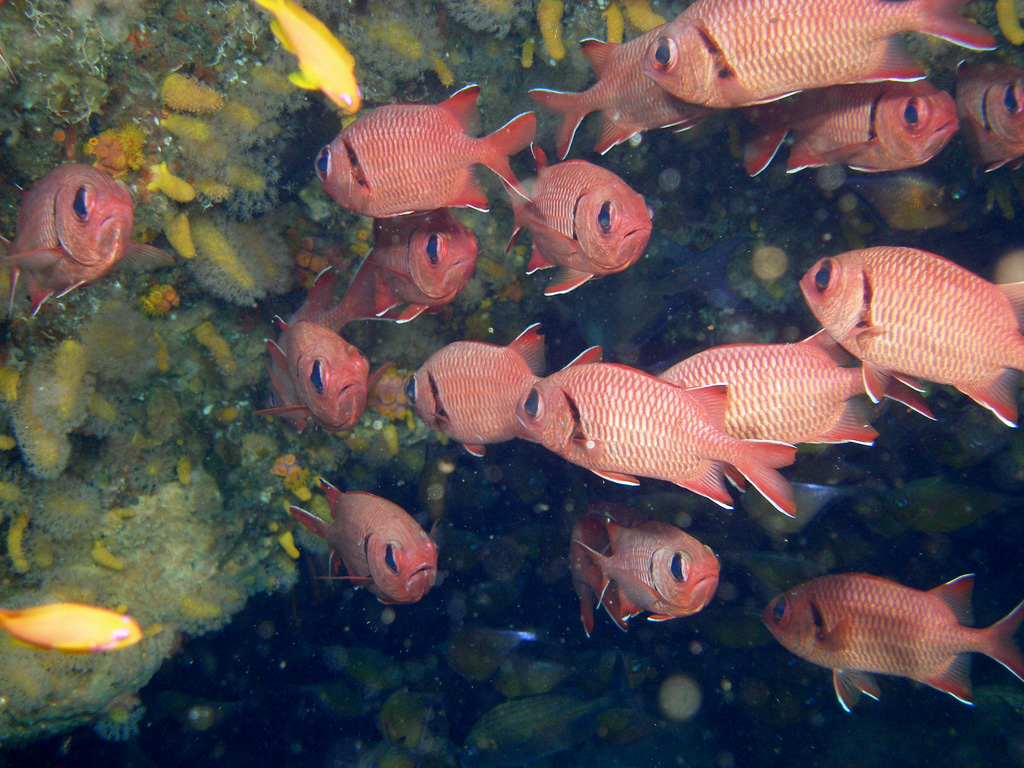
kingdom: Animalia
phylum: Chordata
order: Beryciformes
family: Holocentridae
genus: Myripristis
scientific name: Myripristis murdjan
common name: Big-eye soldierfish
